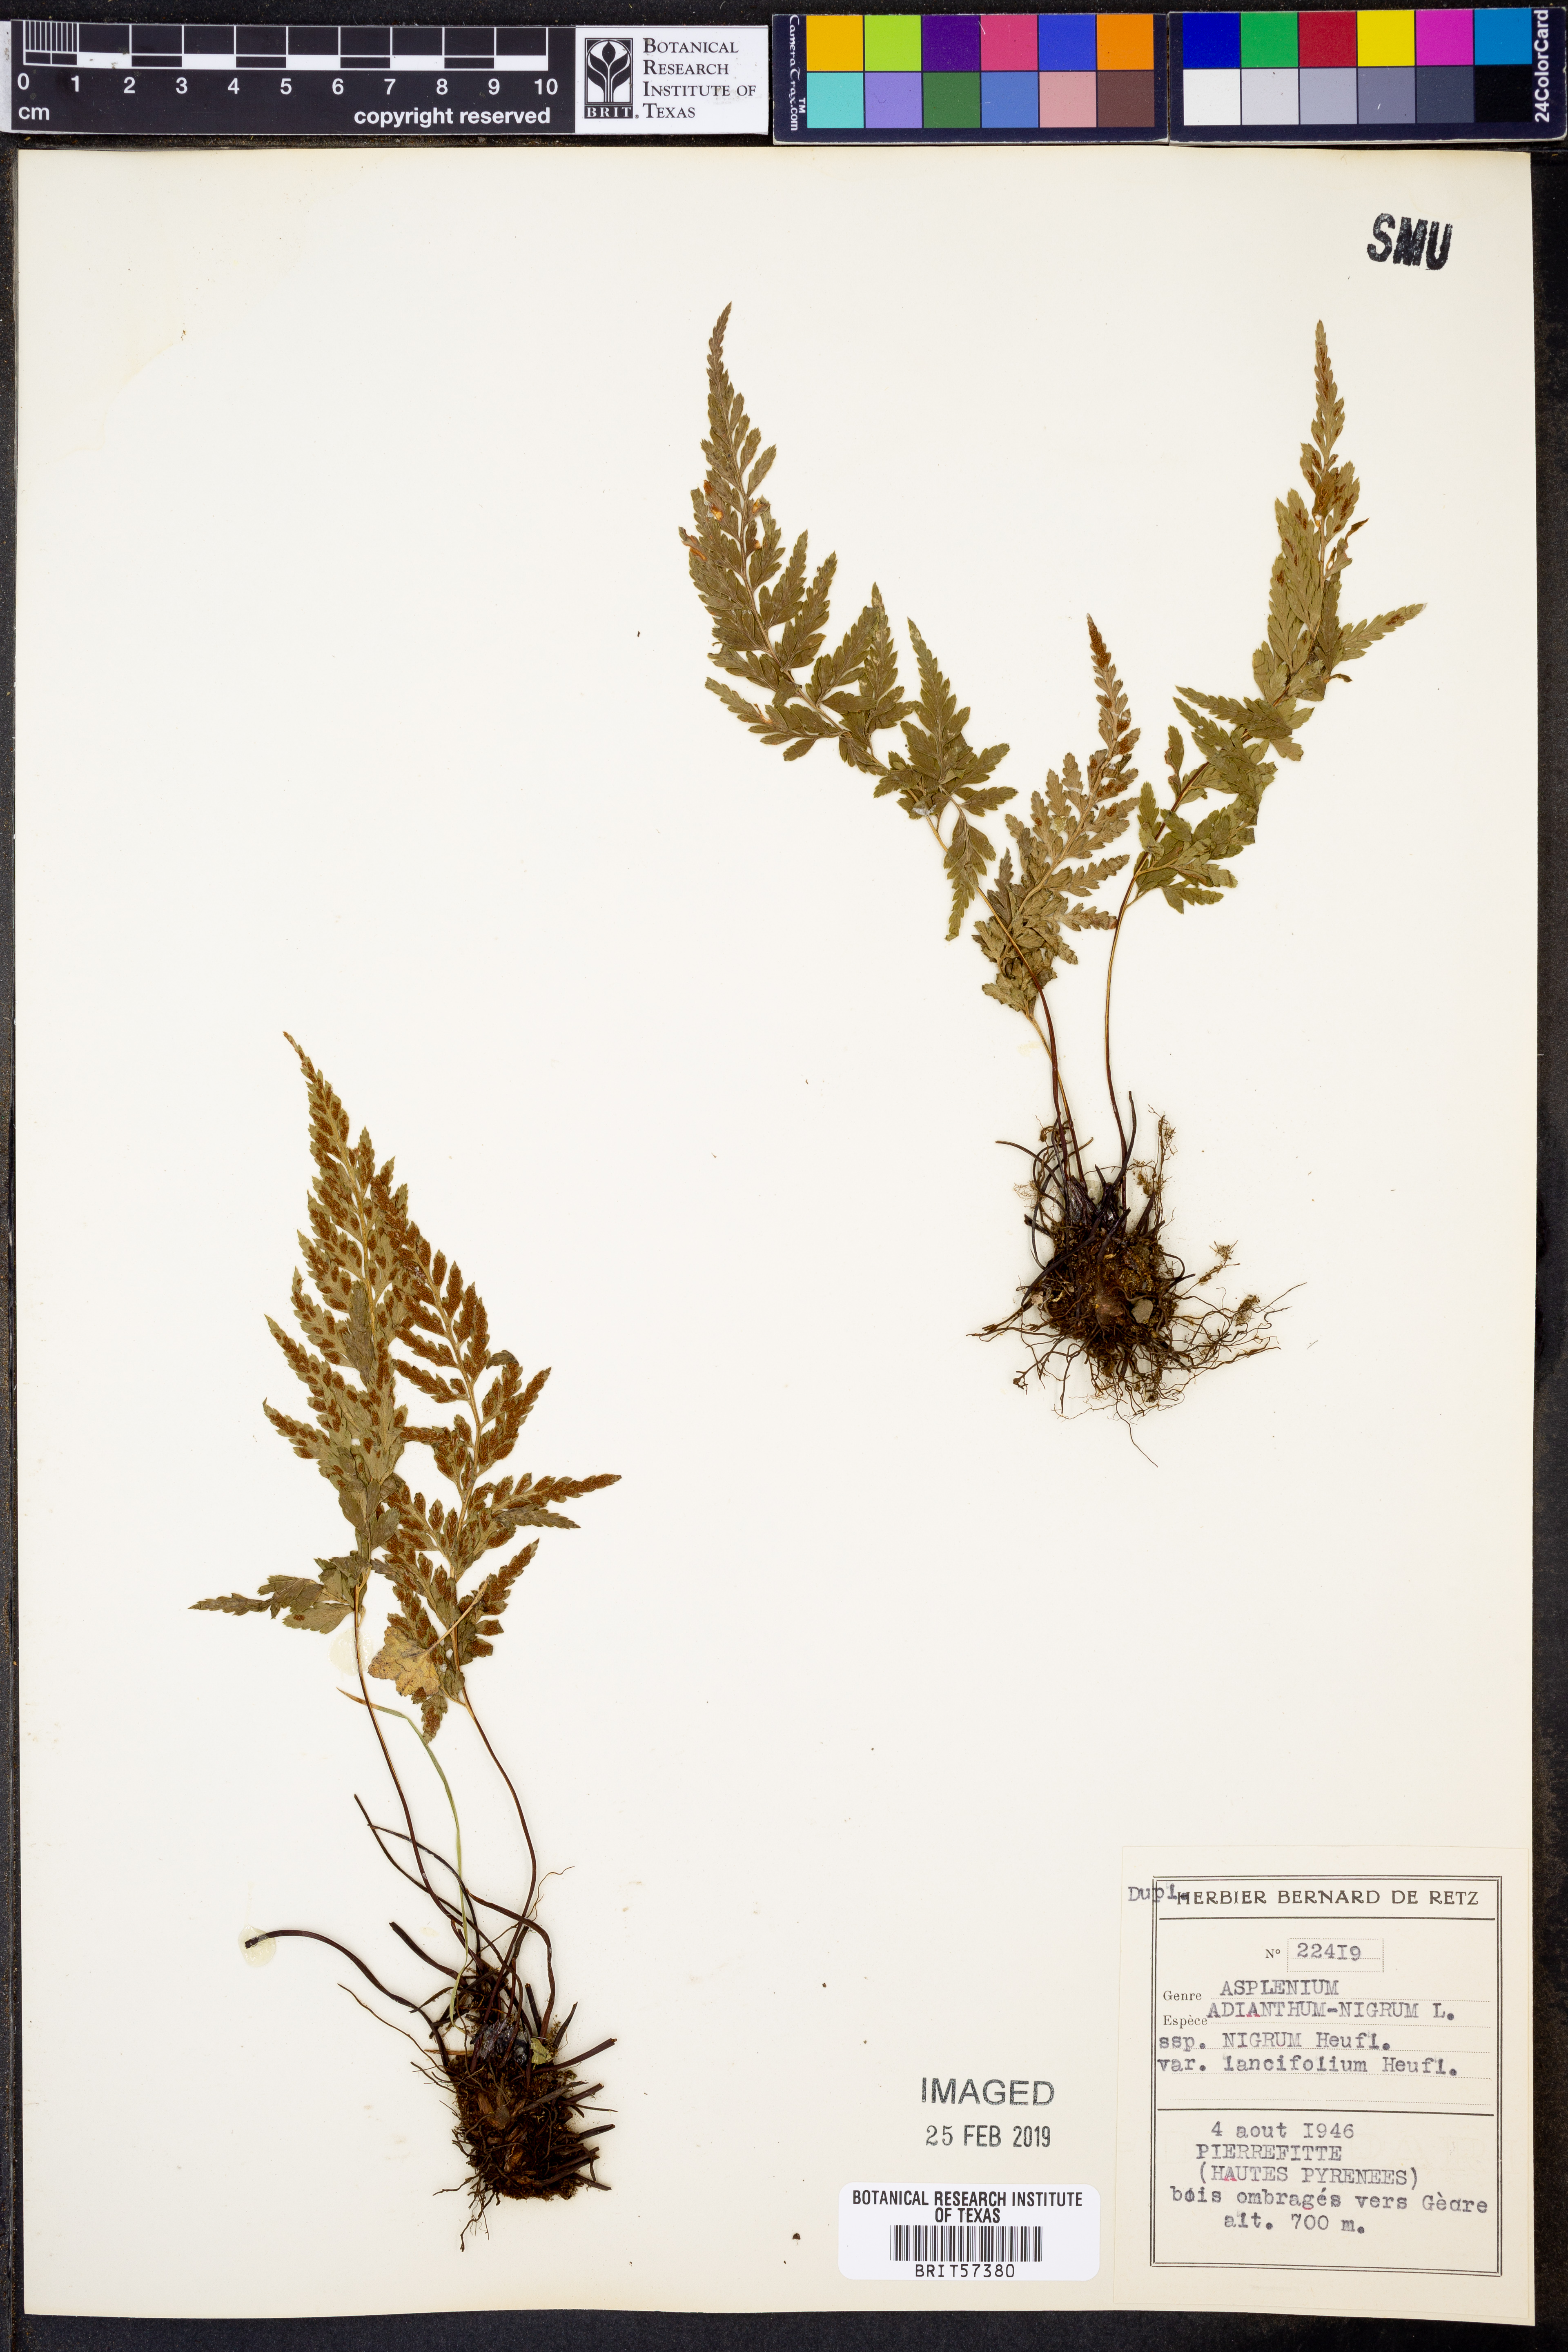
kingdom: Plantae
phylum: Tracheophyta
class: Polypodiopsida
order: Polypodiales
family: Aspleniaceae
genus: Asplenium
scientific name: Asplenium adiantum-nigrum
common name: Black spleenwort
